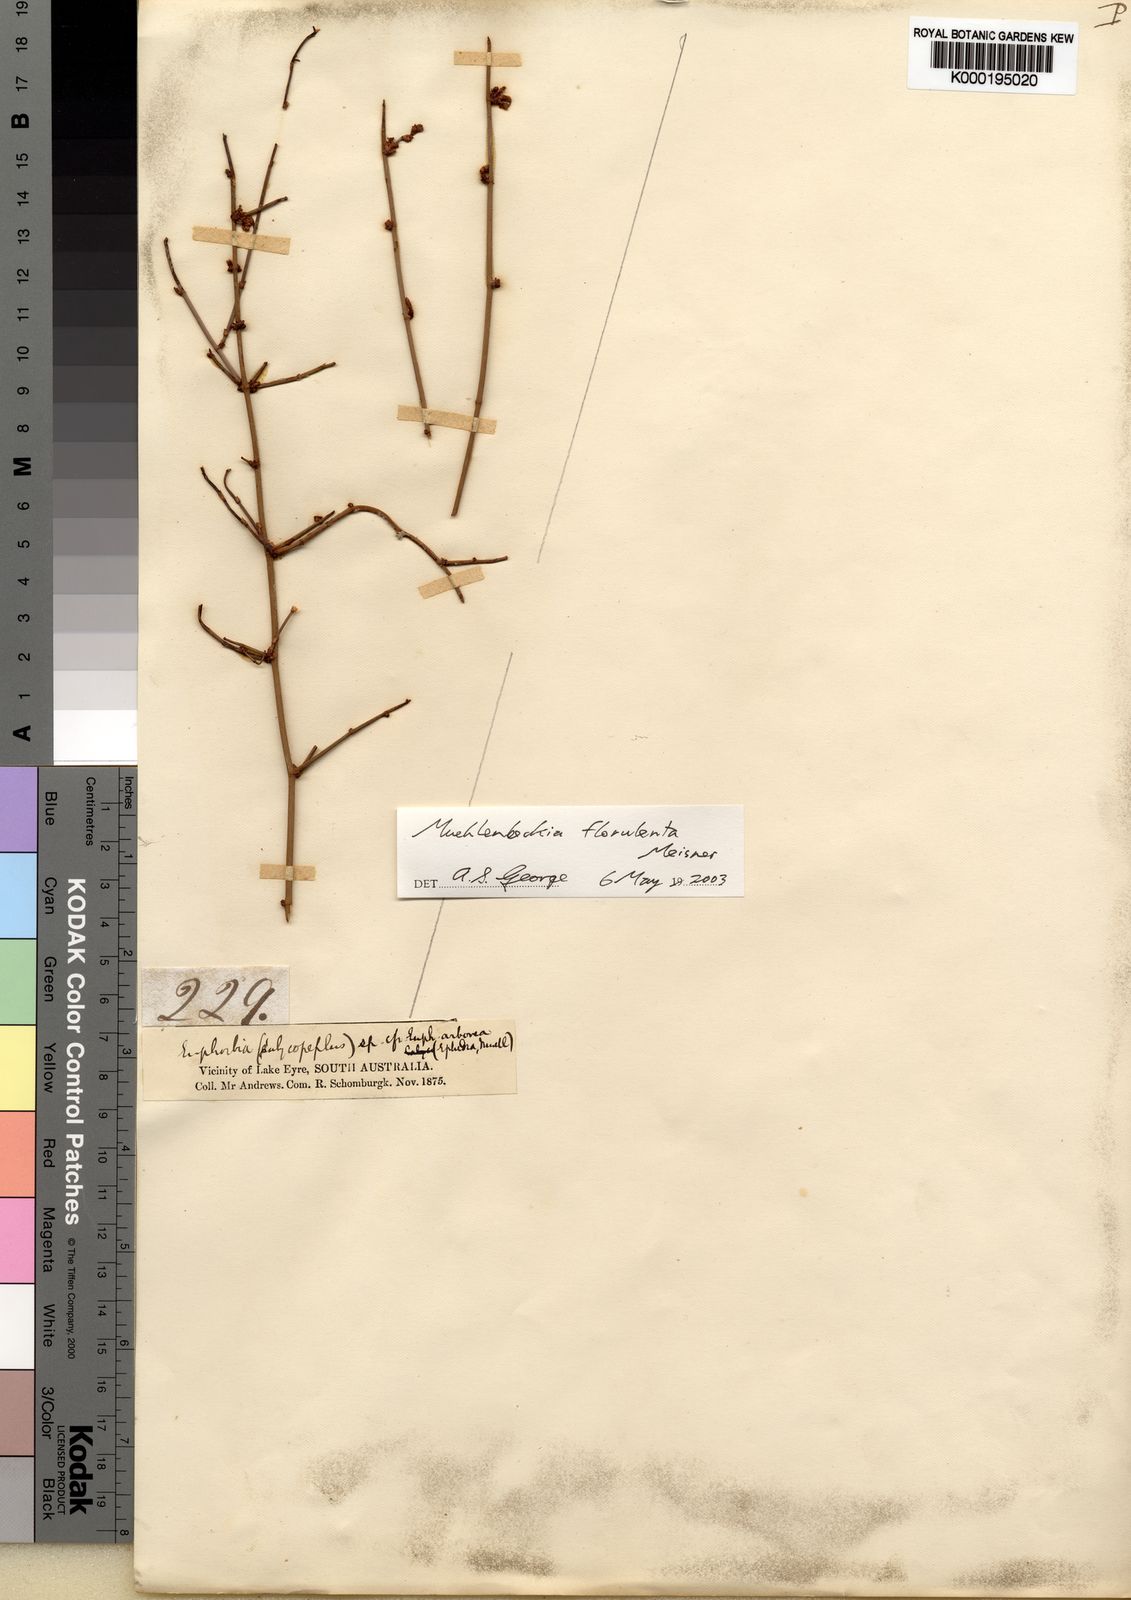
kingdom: Plantae
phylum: Tracheophyta
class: Magnoliopsida
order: Caryophyllales
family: Polygonaceae
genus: Duma
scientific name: Duma florulenta
